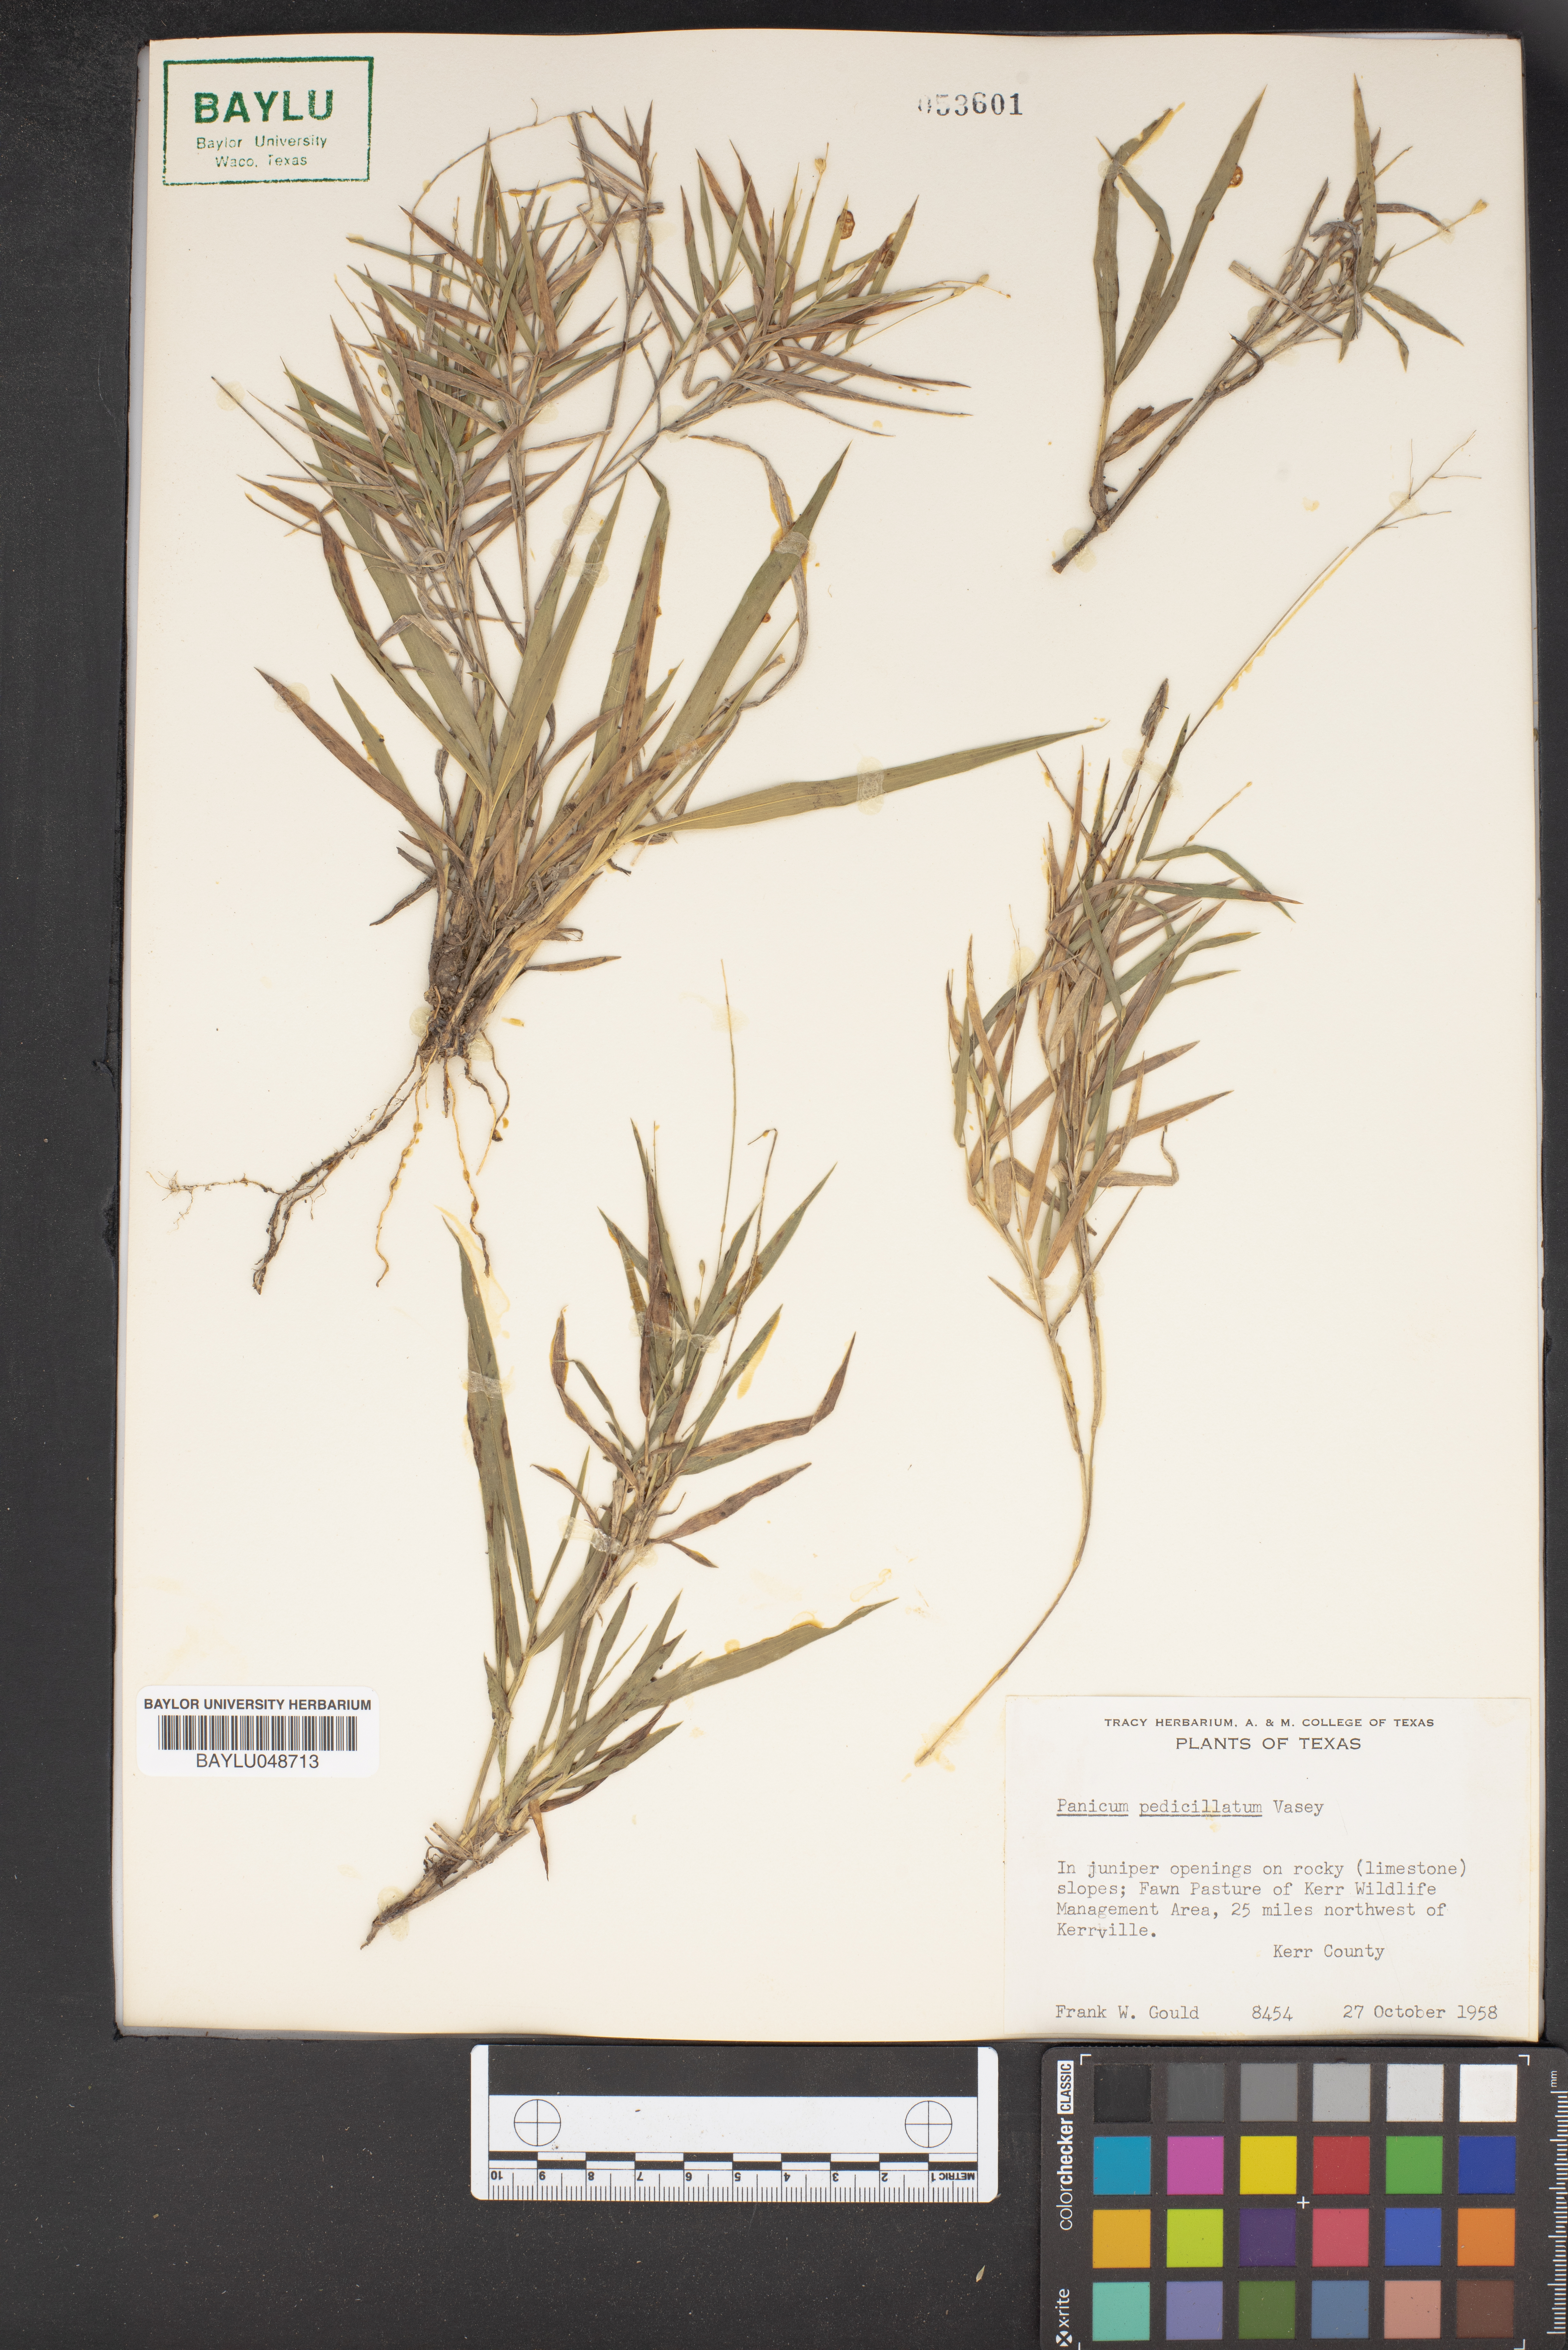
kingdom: Plantae
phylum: Tracheophyta
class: Liliopsida
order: Poales
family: Poaceae
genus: Dichanthelium
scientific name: Dichanthelium transiens
